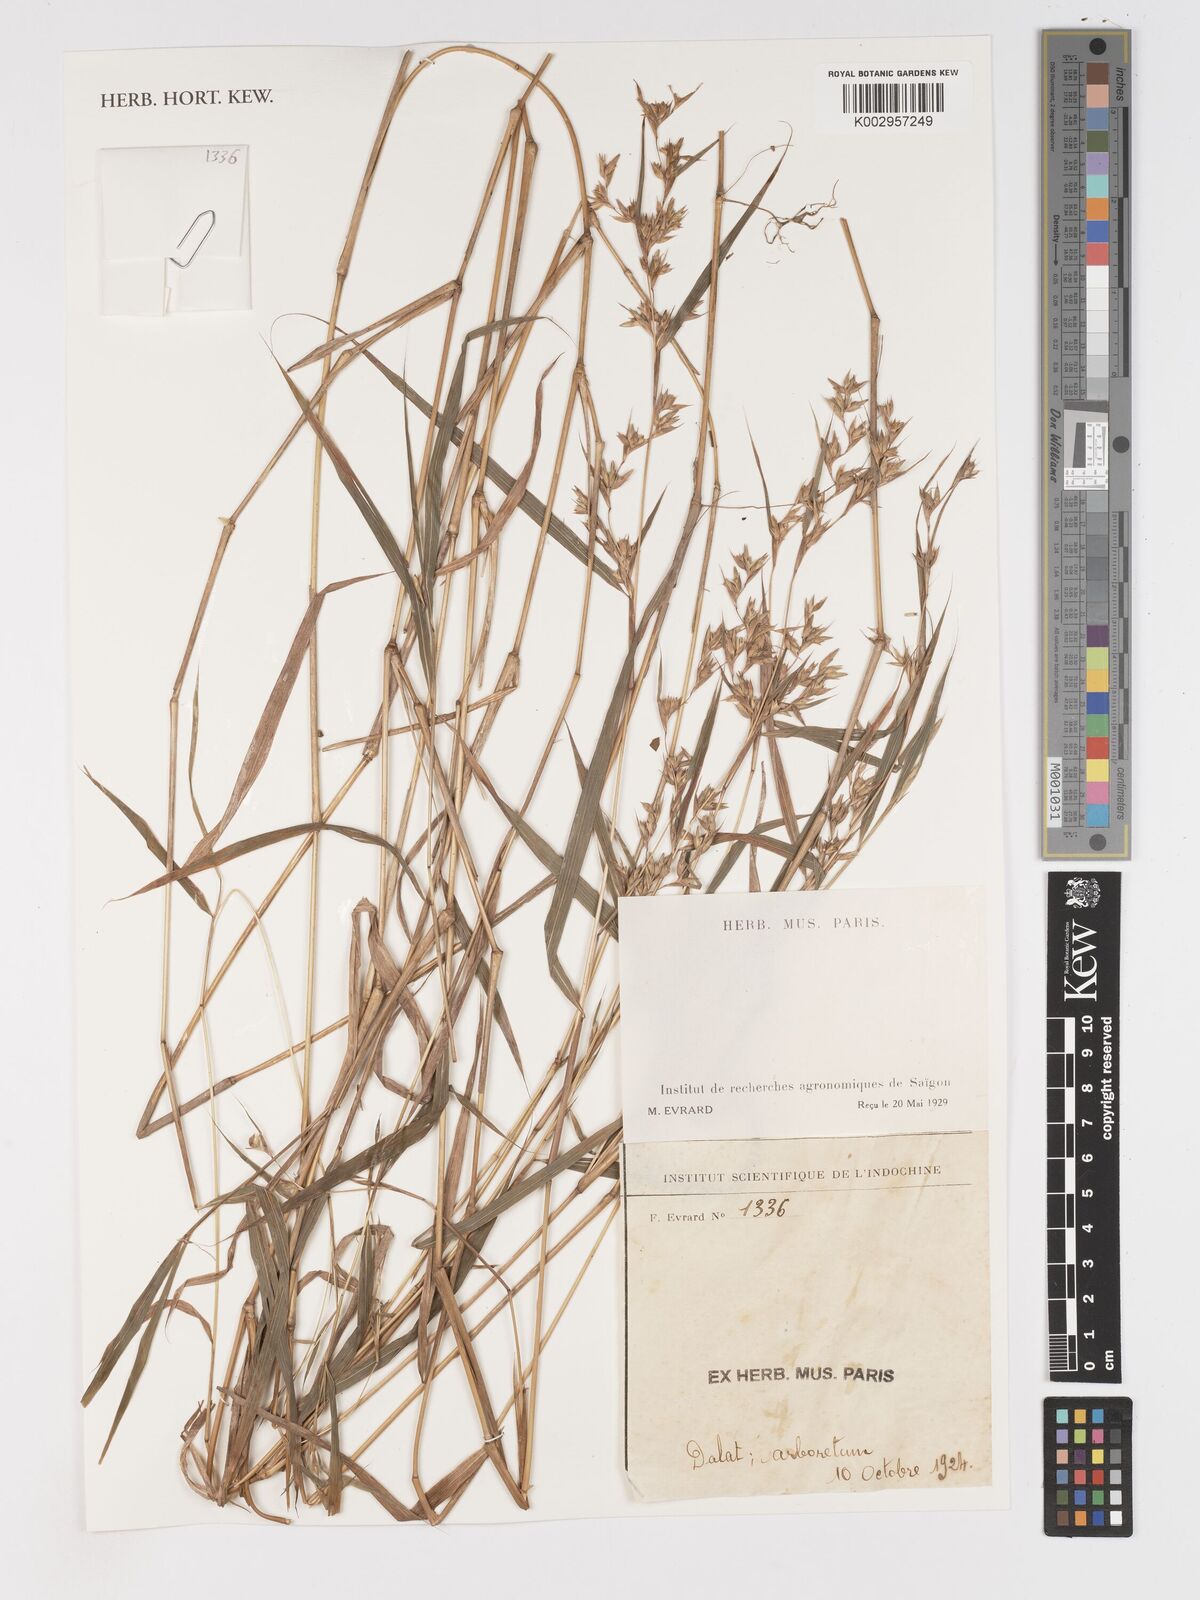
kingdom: Plantae
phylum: Tracheophyta
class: Liliopsida
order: Poales
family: Poaceae
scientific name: Poaceae
